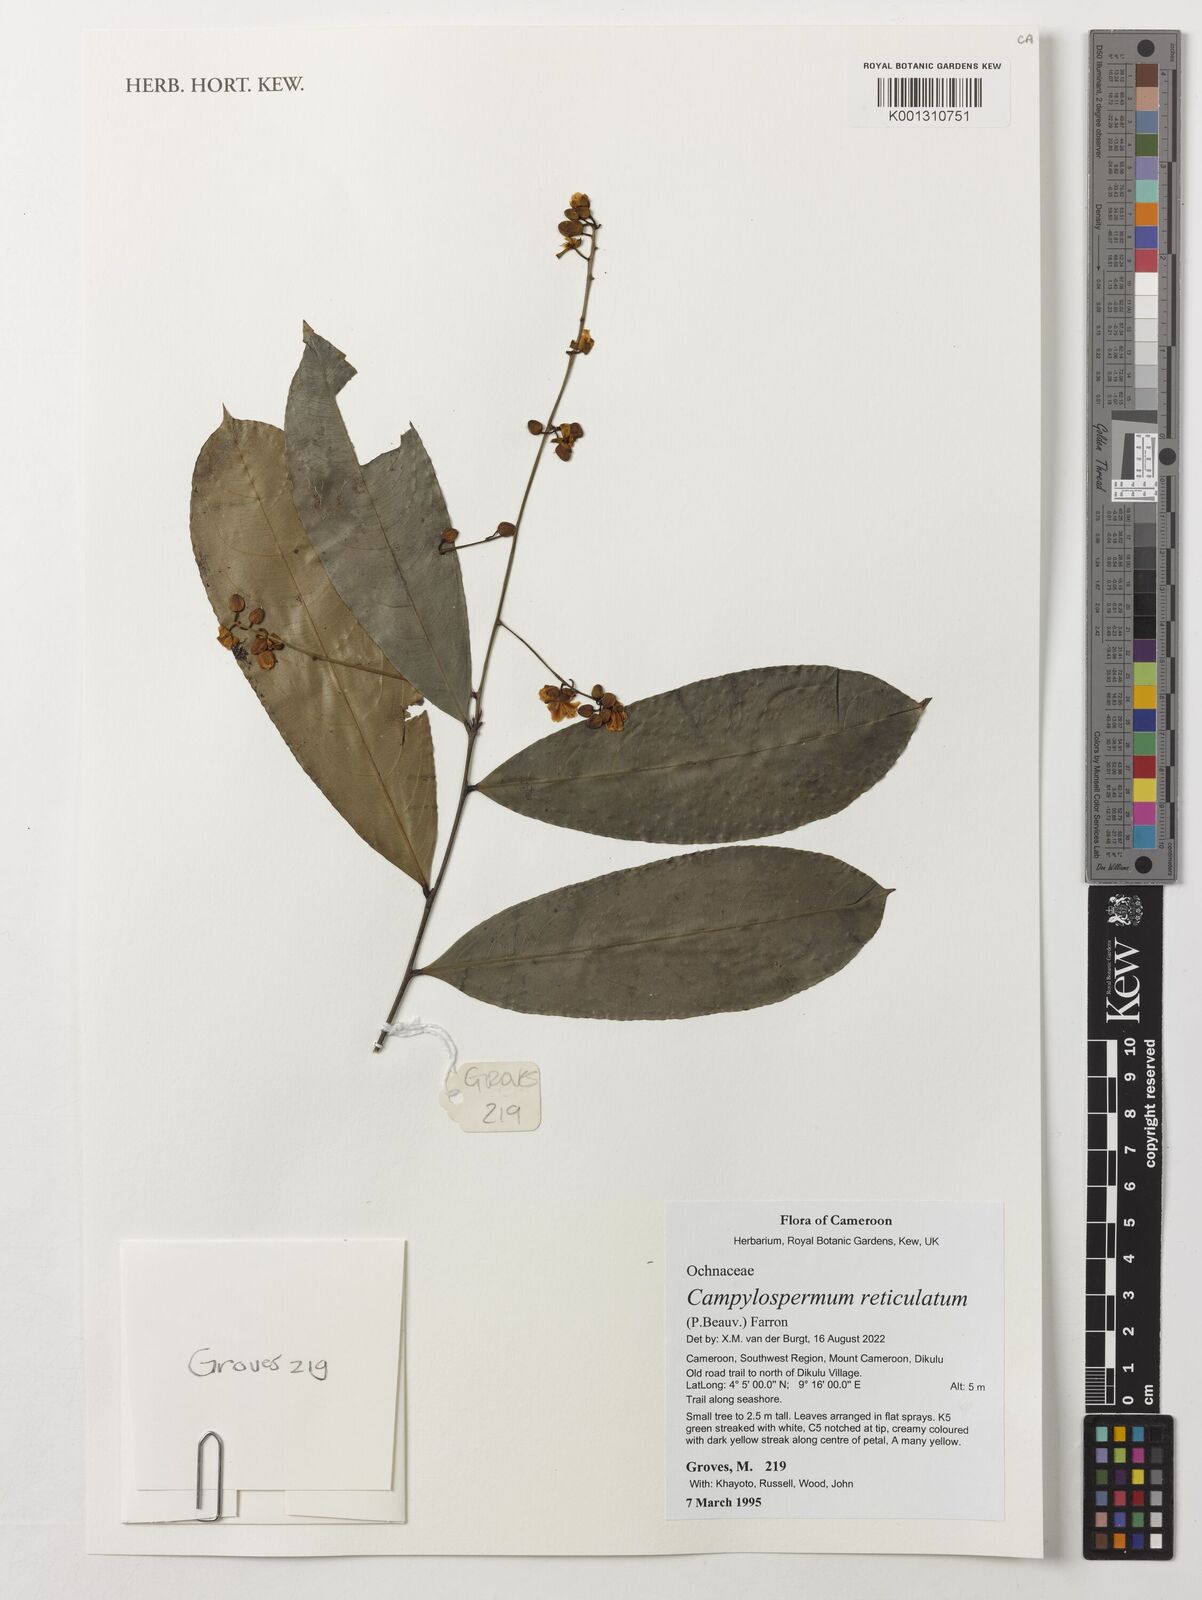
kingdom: Plantae
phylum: Tracheophyta
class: Magnoliopsida
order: Malpighiales
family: Ochnaceae
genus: Campylospermum
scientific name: Campylospermum reticulatum
